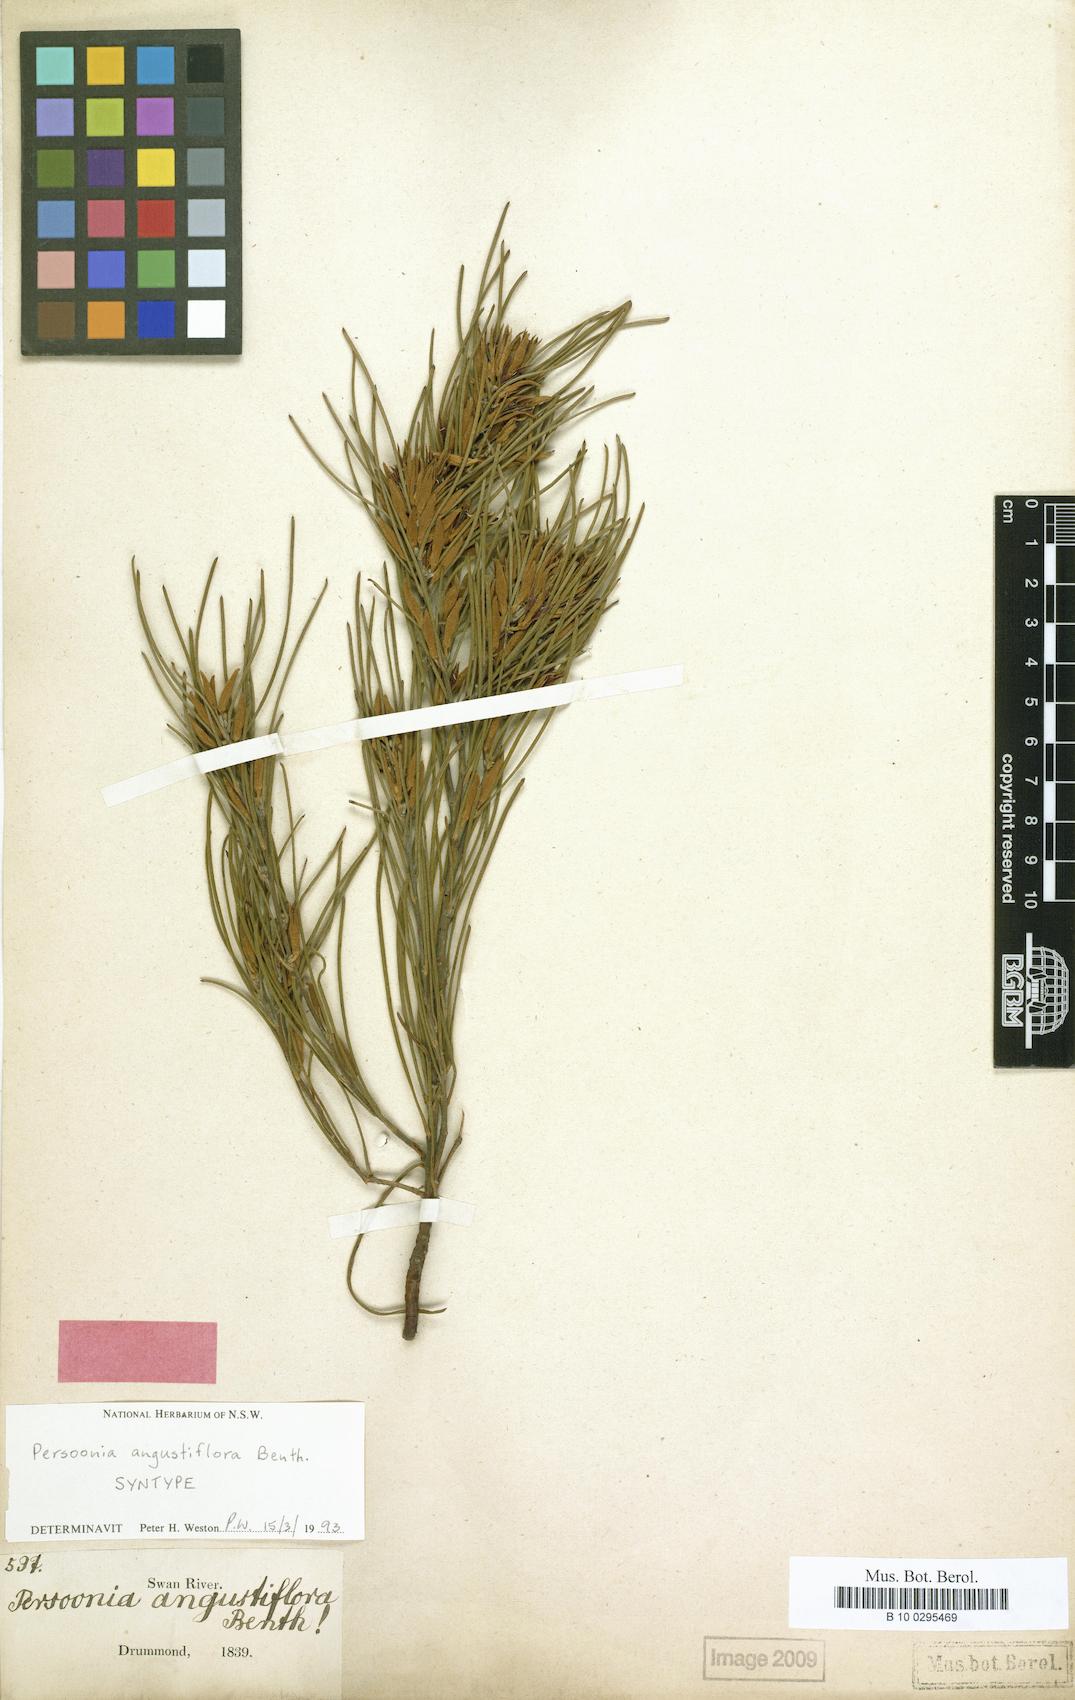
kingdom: Plantae
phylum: Tracheophyta
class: Magnoliopsida
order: Proteales
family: Proteaceae
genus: Persoonia
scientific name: Persoonia angustiflora
